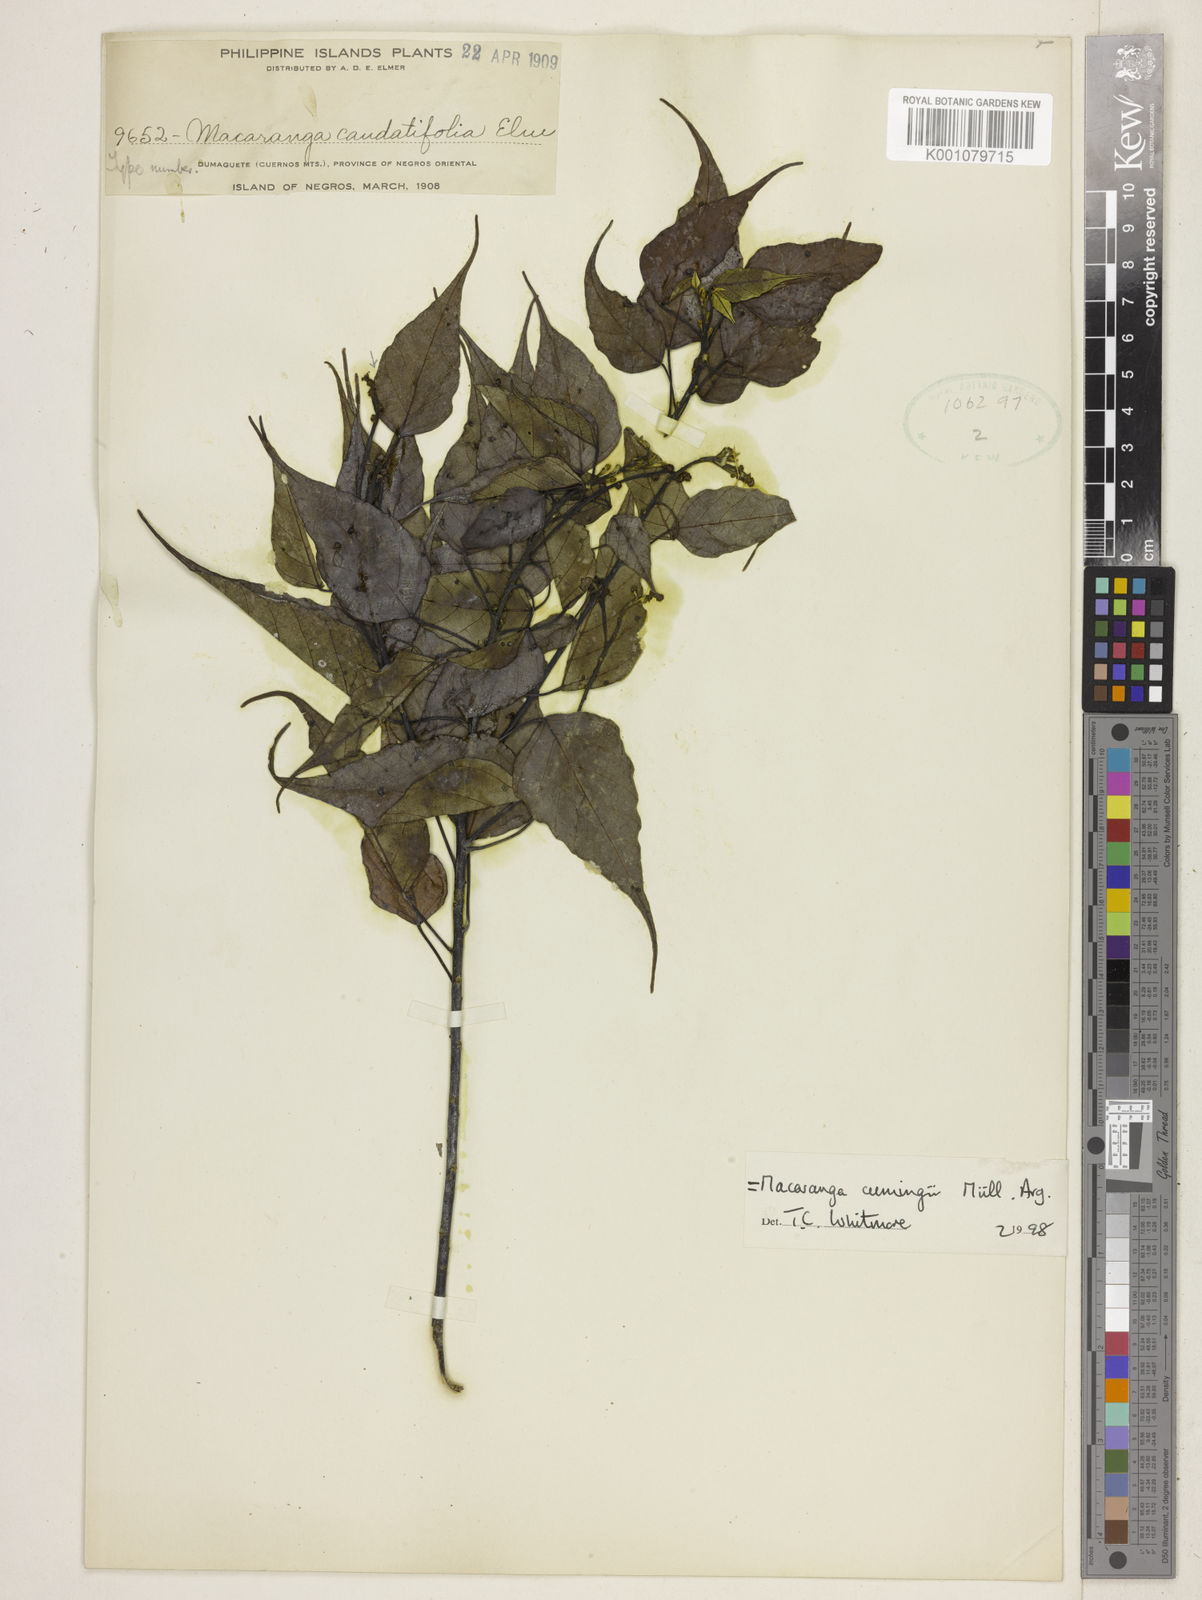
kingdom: Plantae
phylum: Tracheophyta
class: Magnoliopsida
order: Malpighiales
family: Euphorbiaceae
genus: Macaranga
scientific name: Macaranga
